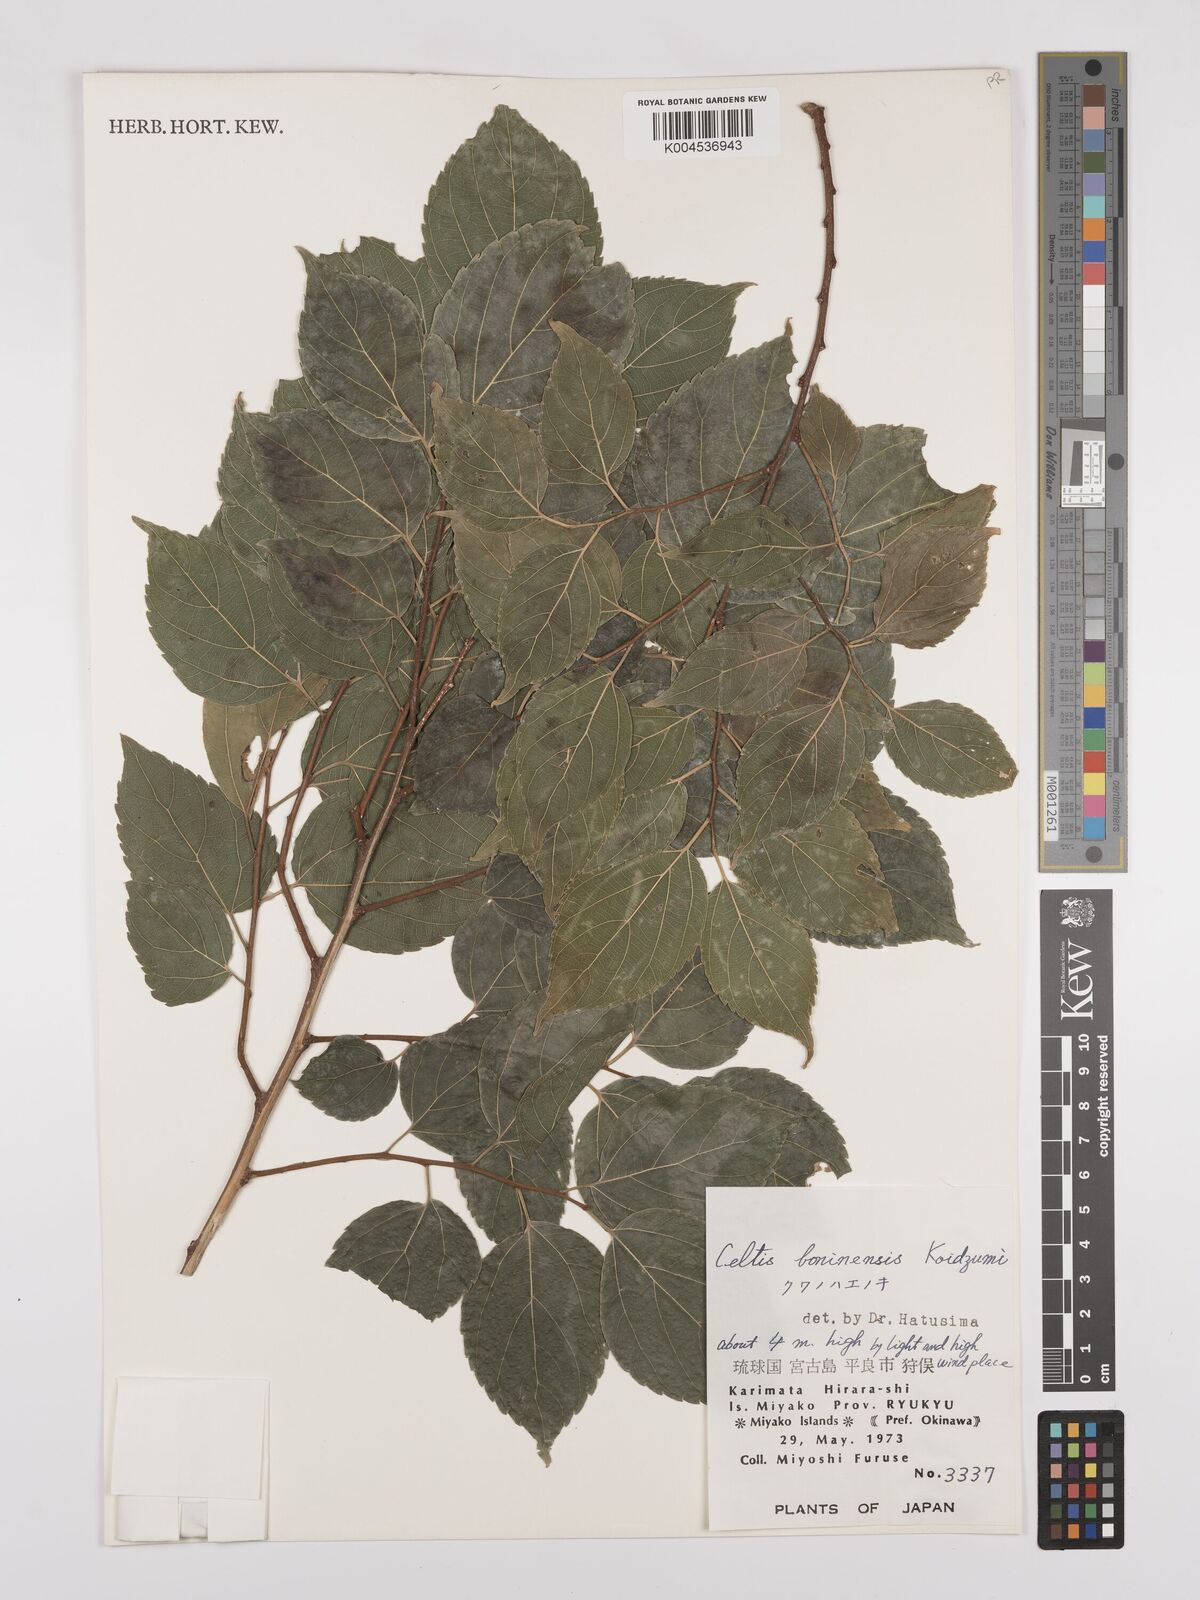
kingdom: Plantae
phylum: Tracheophyta
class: Magnoliopsida
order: Rosales
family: Cannabaceae
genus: Celtis
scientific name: Celtis boninensis
